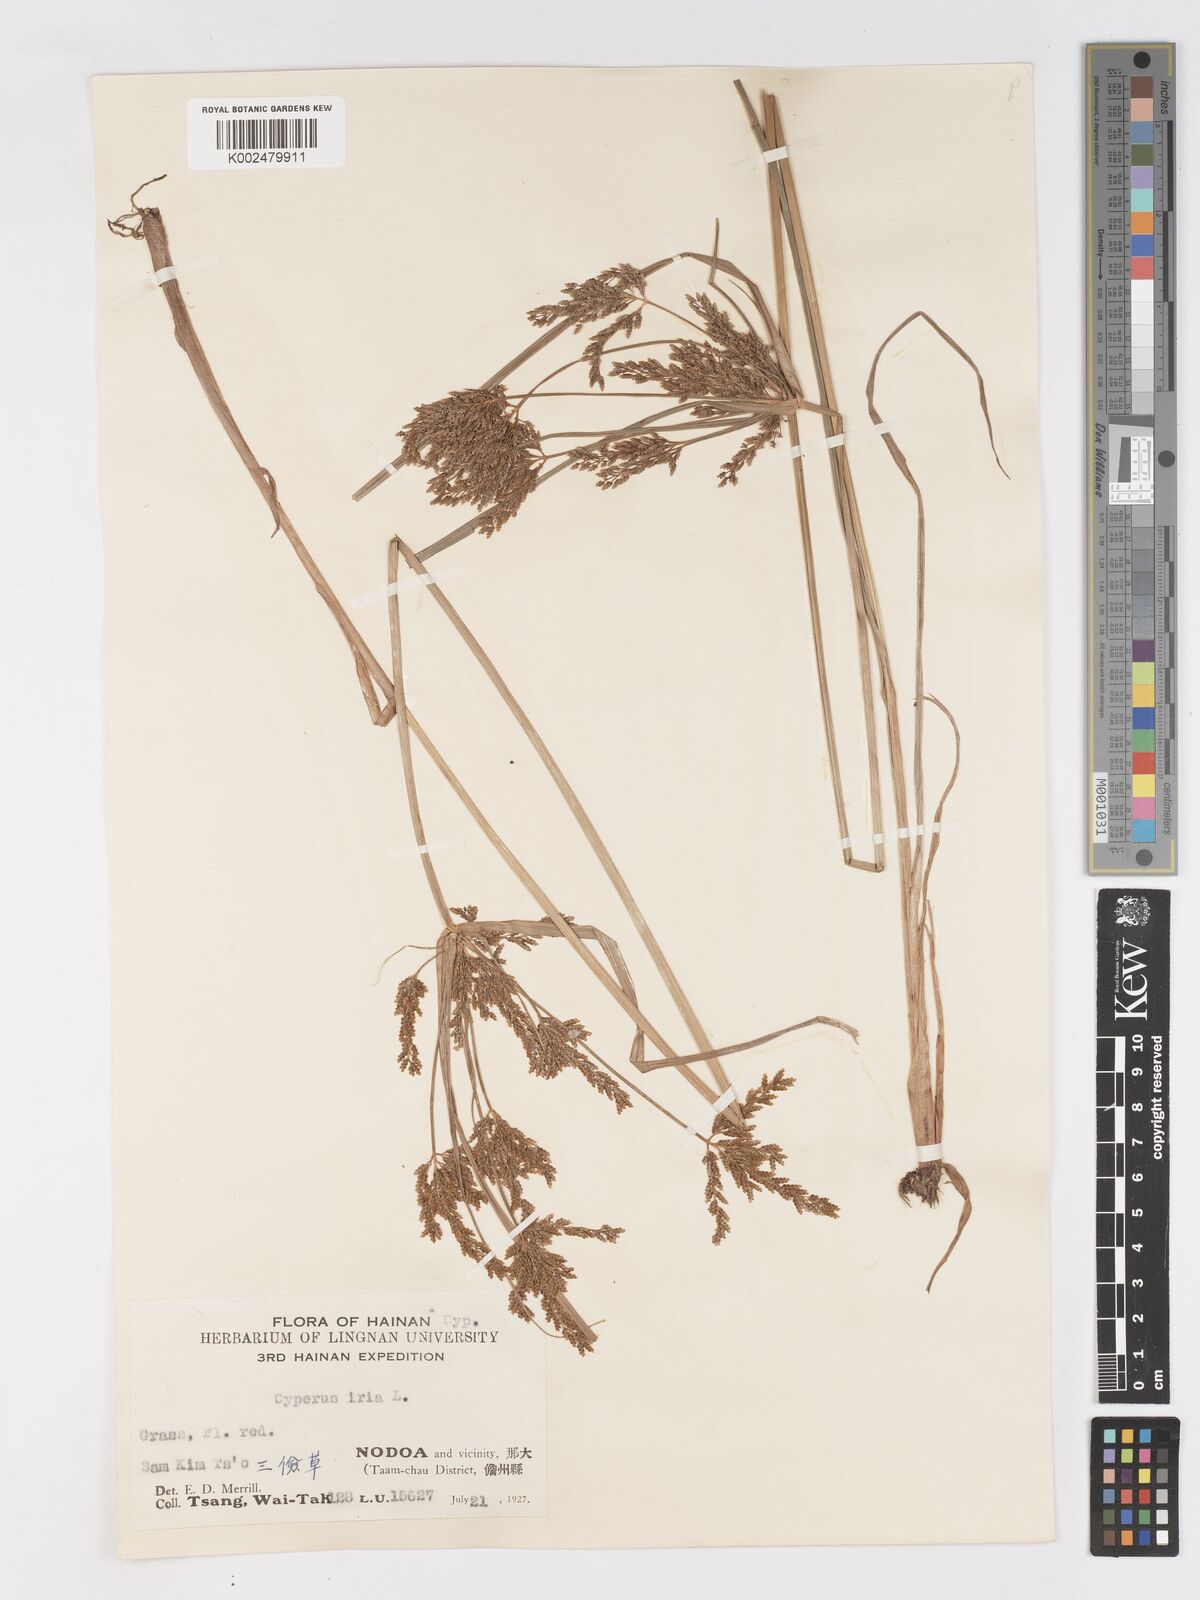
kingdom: Plantae
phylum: Tracheophyta
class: Liliopsida
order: Poales
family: Cyperaceae
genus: Cyperus
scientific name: Cyperus iria
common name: Ricefield flatsedge
